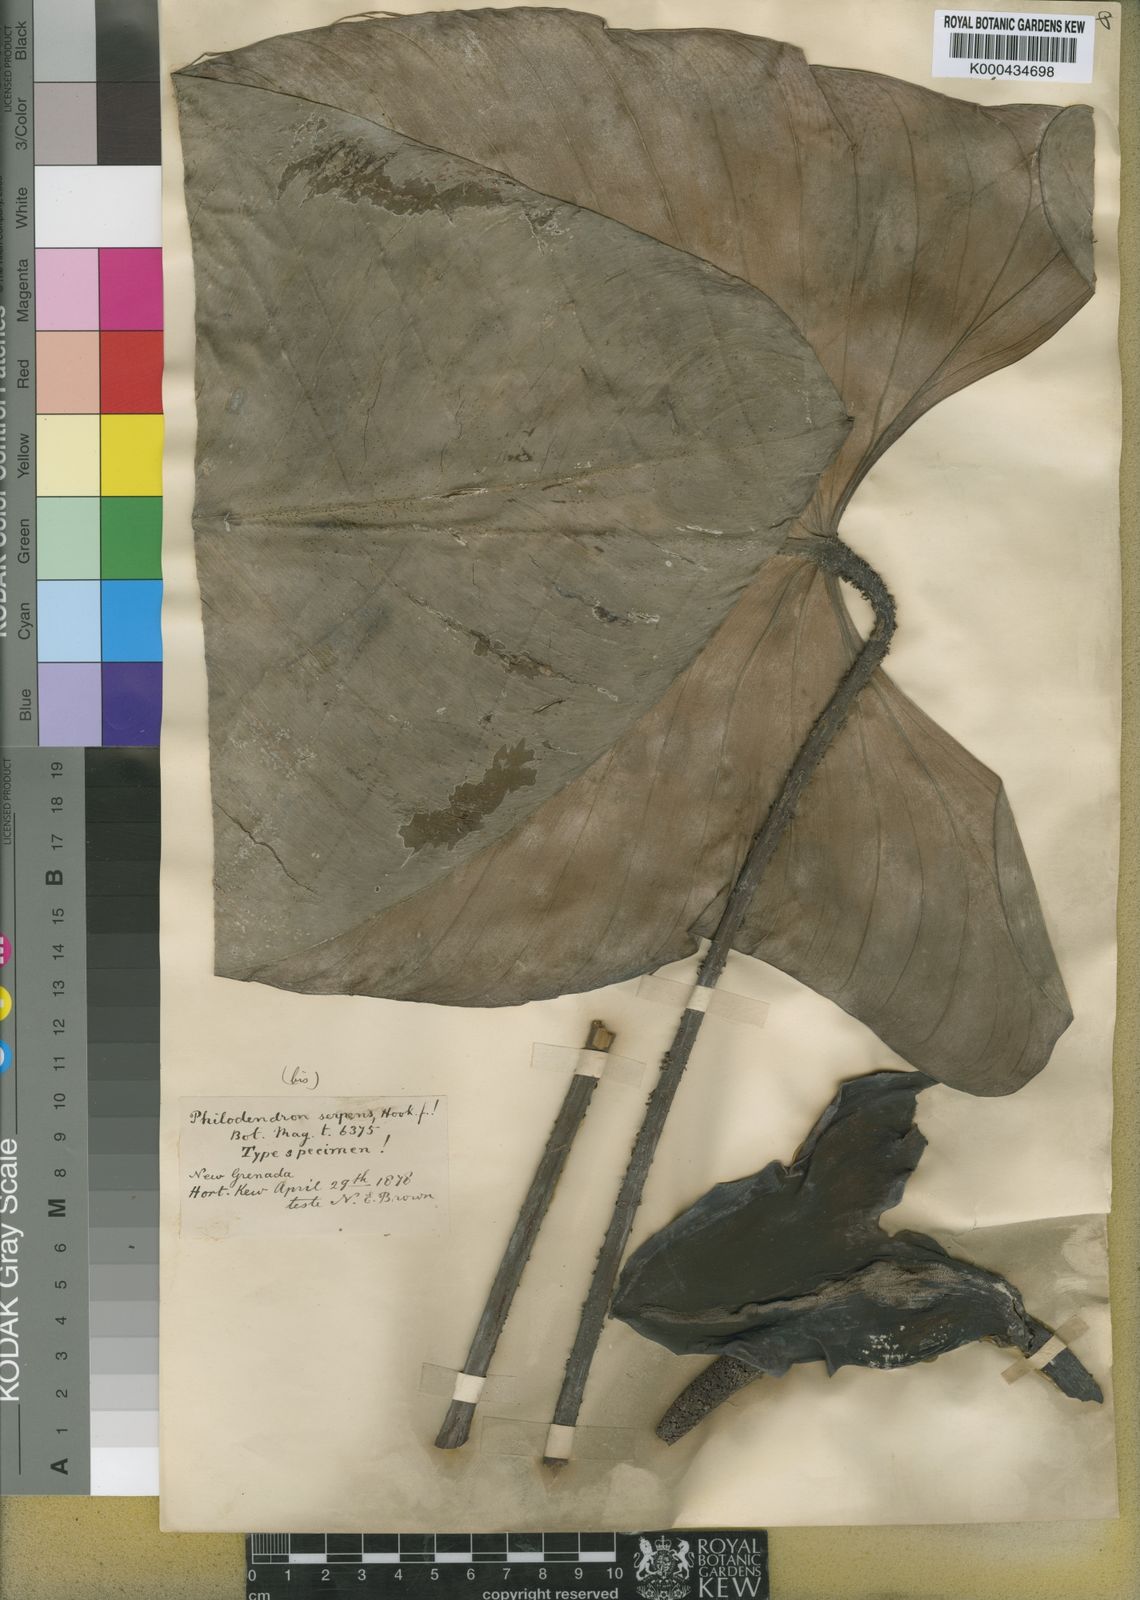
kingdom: Plantae
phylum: Tracheophyta
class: Liliopsida
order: Alismatales
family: Araceae
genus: Philodendron
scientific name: Philodendron serpens
